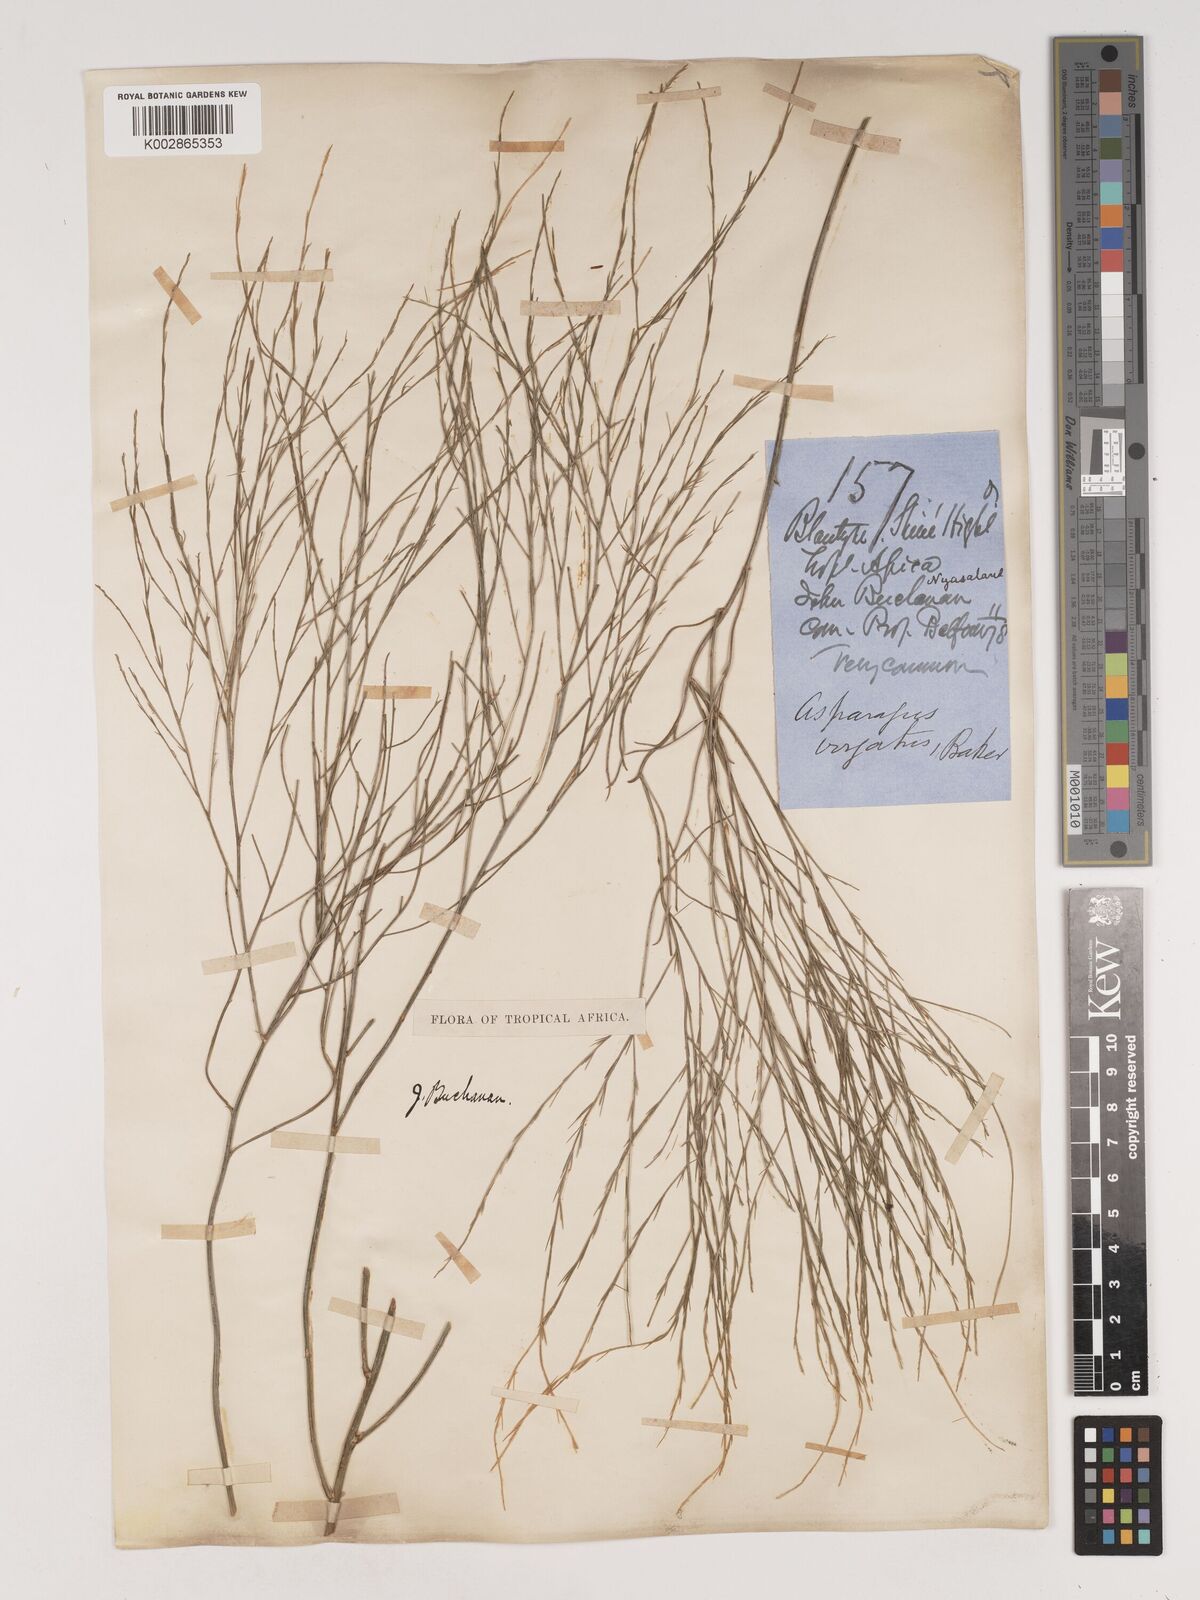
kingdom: Plantae
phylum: Tracheophyta
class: Liliopsida
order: Asparagales
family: Asparagaceae
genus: Asparagus
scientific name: Asparagus virgatus
